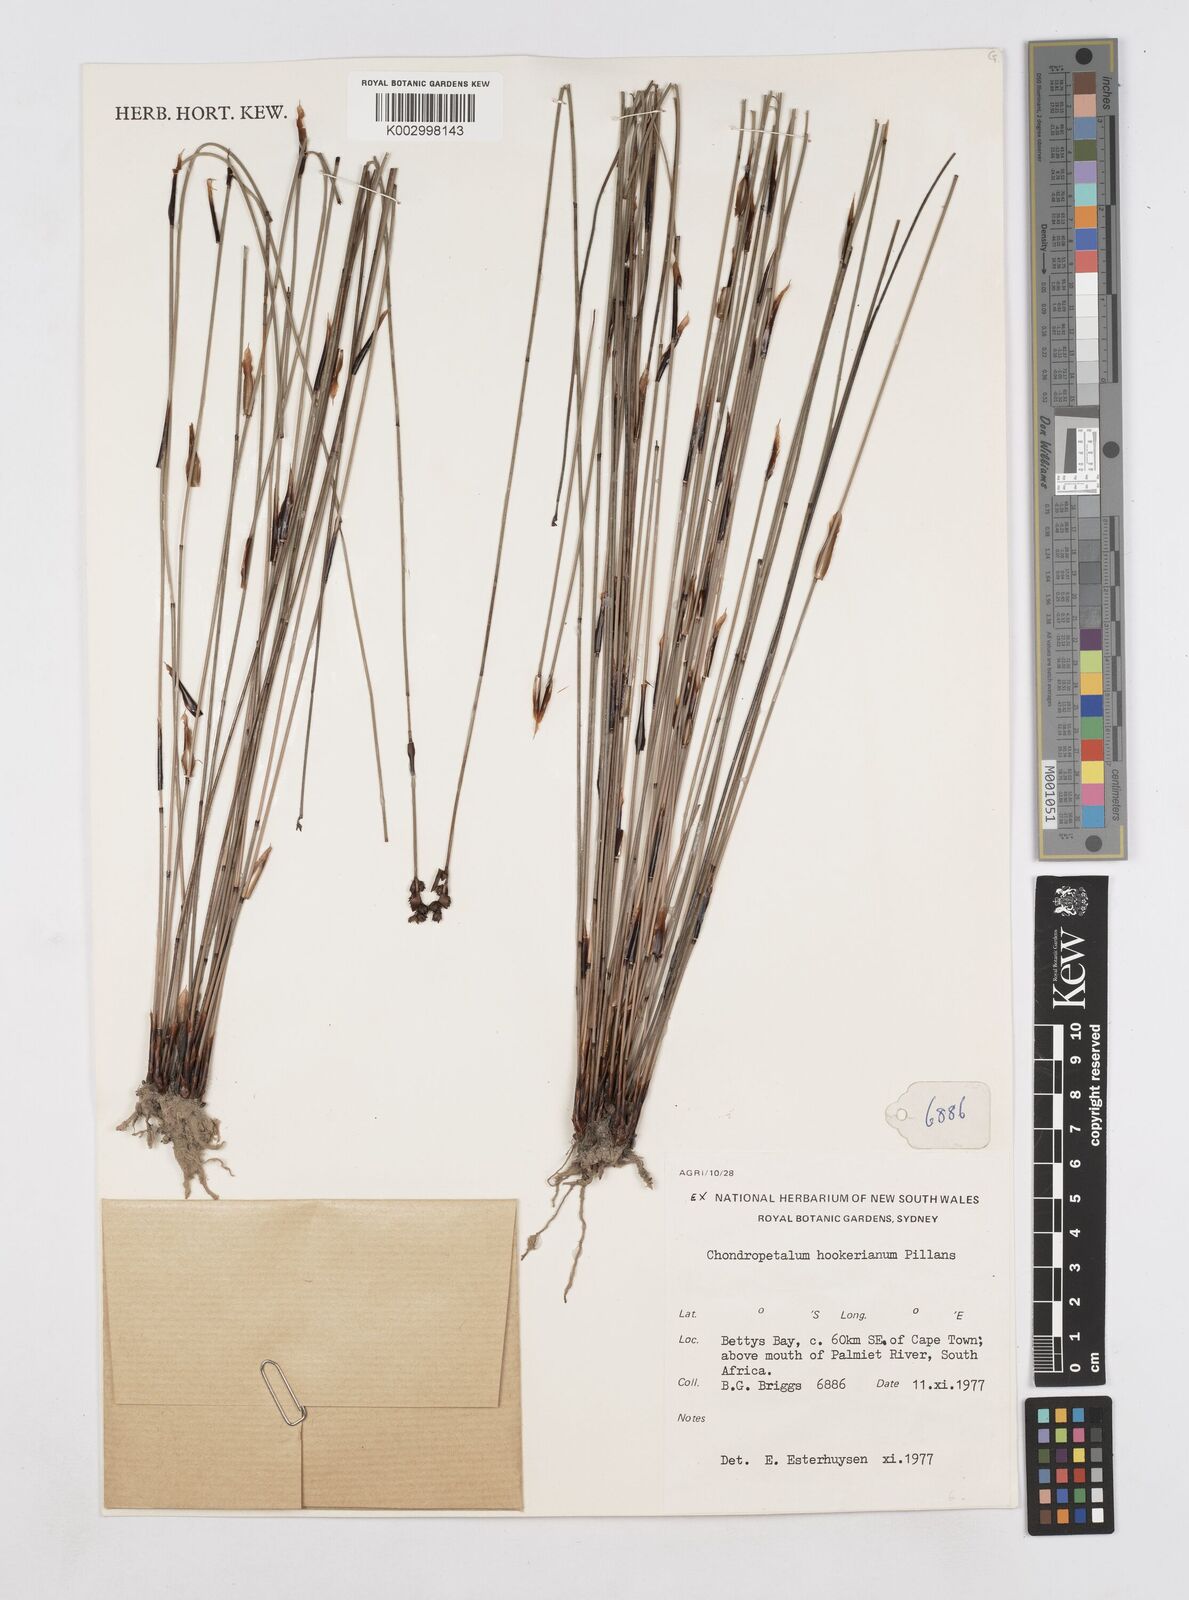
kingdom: Plantae
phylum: Tracheophyta
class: Liliopsida
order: Poales
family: Restionaceae
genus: Elegia
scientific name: Elegia hookeriana
